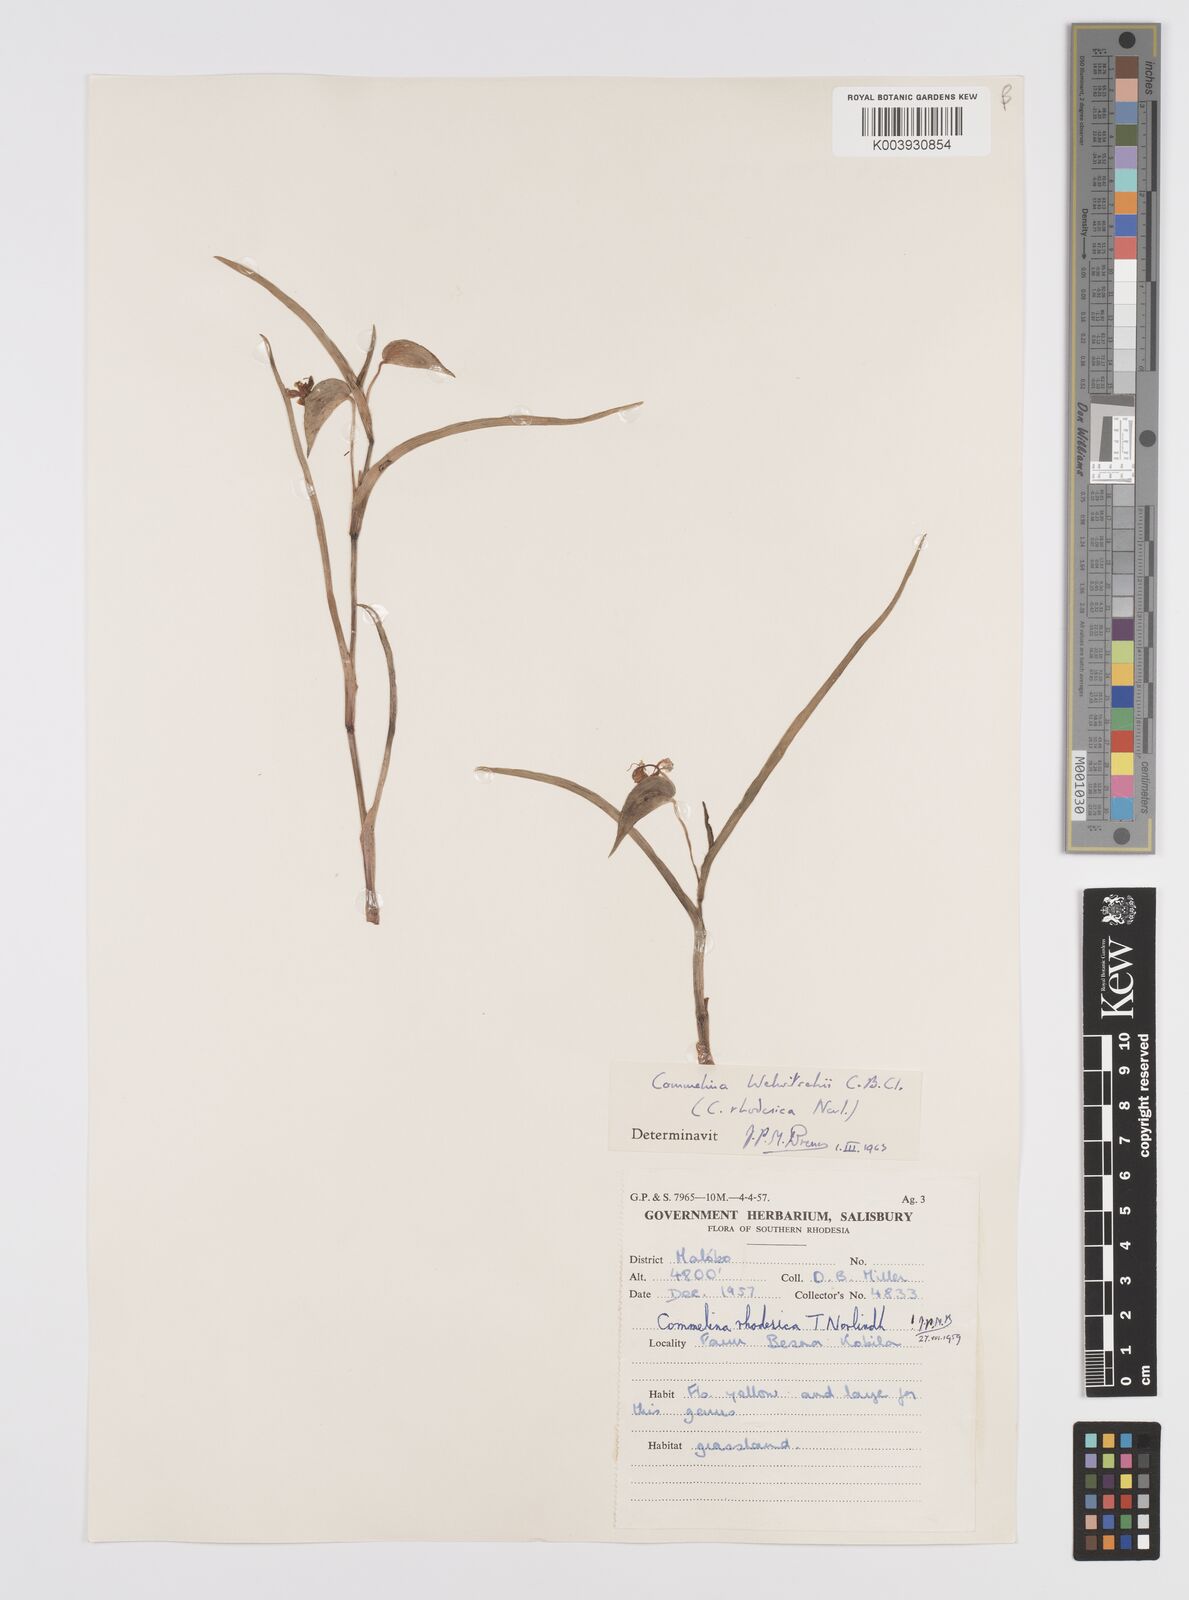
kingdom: Plantae
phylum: Tracheophyta
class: Liliopsida
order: Commelinales
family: Commelinaceae
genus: Commelina
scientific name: Commelina welwitschii
